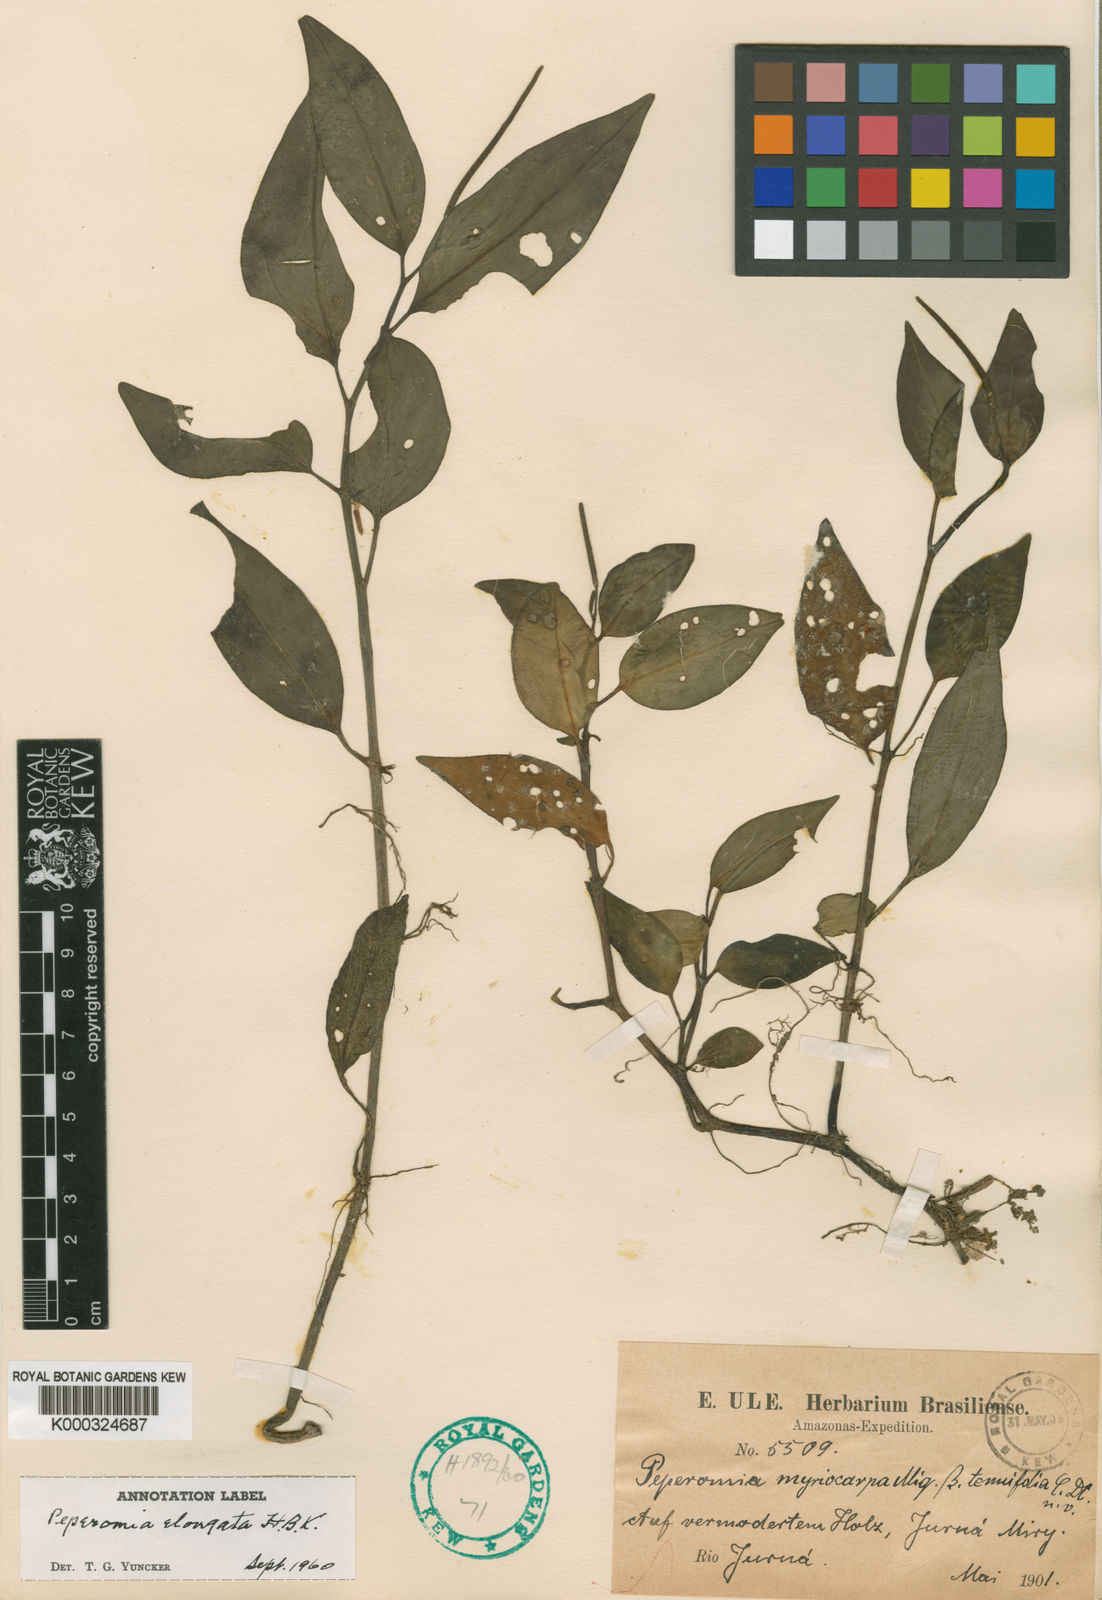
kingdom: Plantae
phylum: Tracheophyta
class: Magnoliopsida
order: Piperales
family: Piperaceae
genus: Peperomia
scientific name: Peperomia elongata
